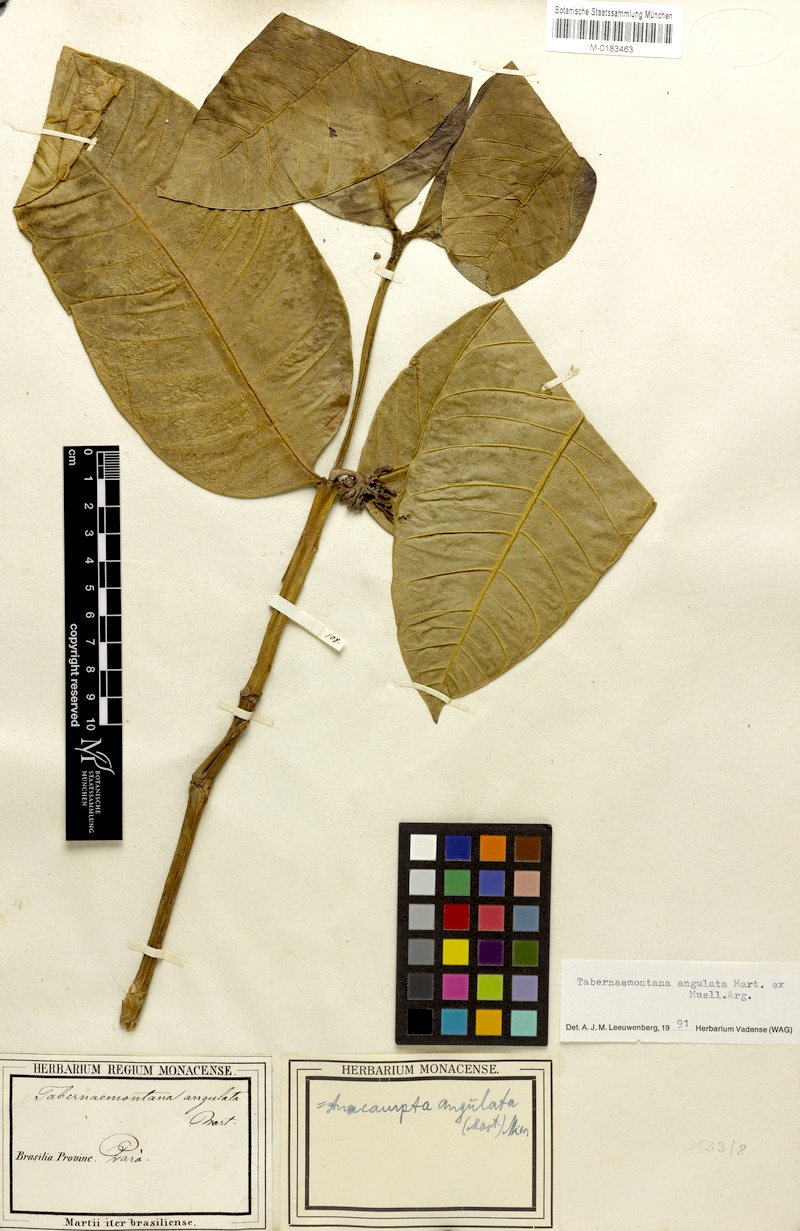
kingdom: Plantae
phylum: Tracheophyta
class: Magnoliopsida
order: Gentianales
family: Apocynaceae
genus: Tabernaemontana
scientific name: Tabernaemontana angulata
